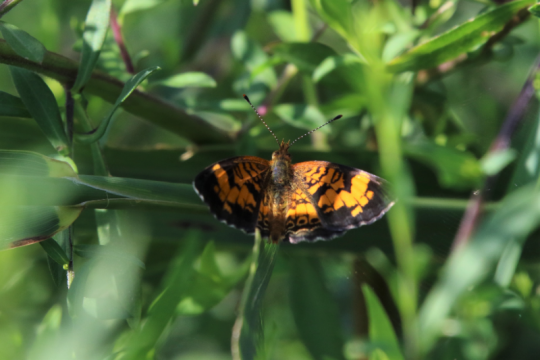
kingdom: Animalia
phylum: Arthropoda
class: Insecta
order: Lepidoptera
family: Nymphalidae
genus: Phyciodes
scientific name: Phyciodes tharos
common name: Pearl Crescent
